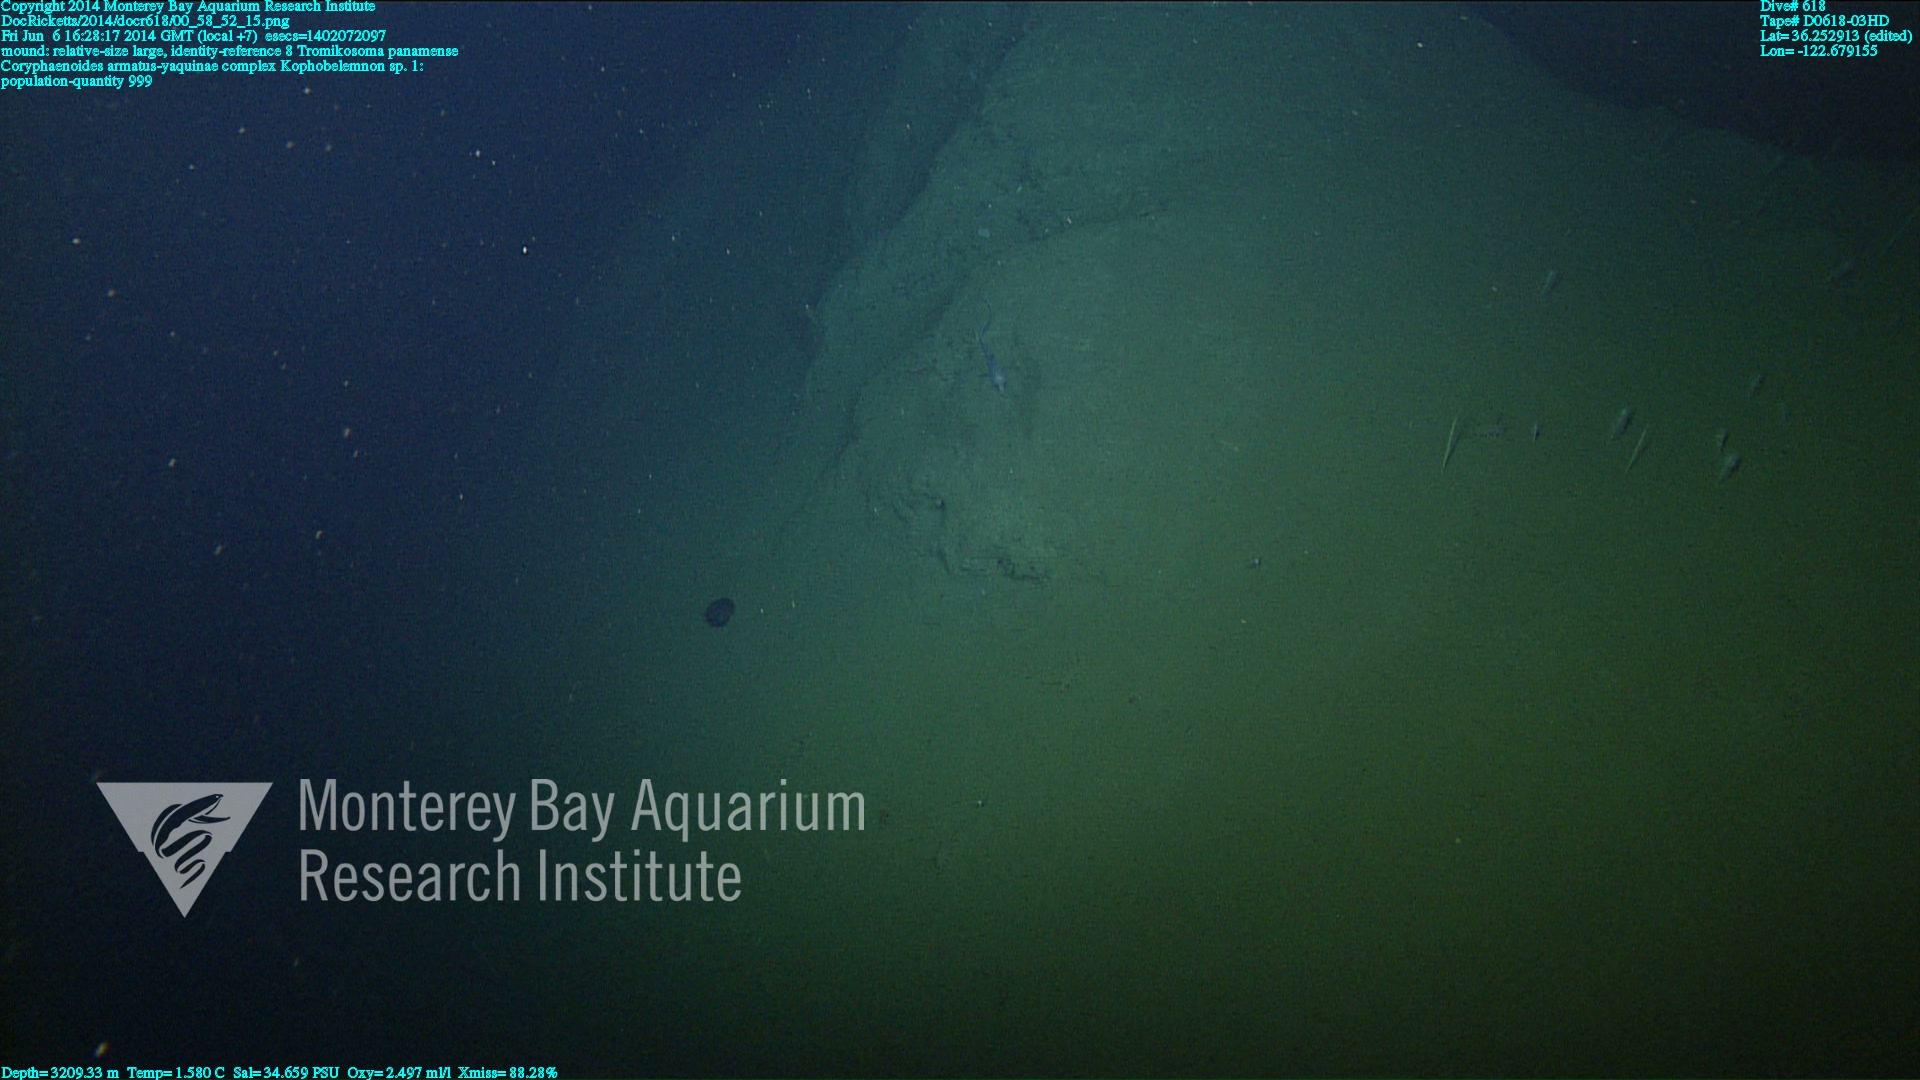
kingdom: Animalia
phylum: Cnidaria
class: Anthozoa
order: Scleralcyonacea
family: Kophobelemnidae
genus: Kophobelemnon
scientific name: Kophobelemnon
